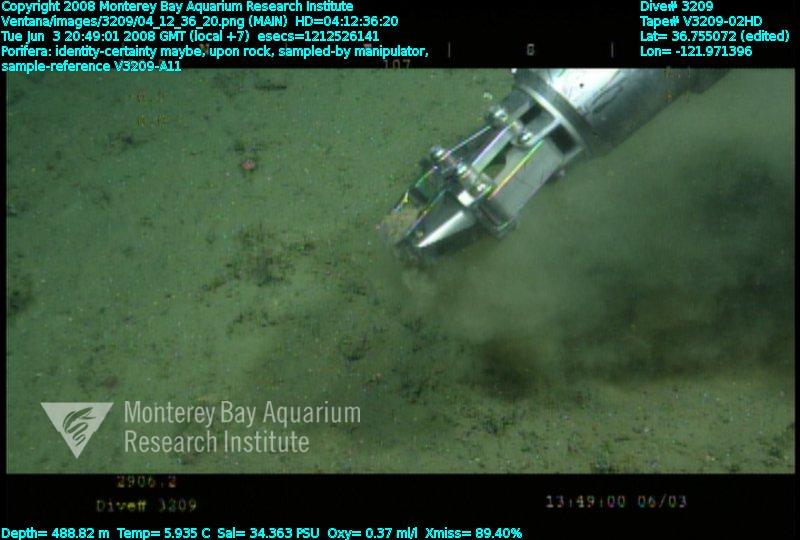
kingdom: Animalia
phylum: Porifera
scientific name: Porifera
